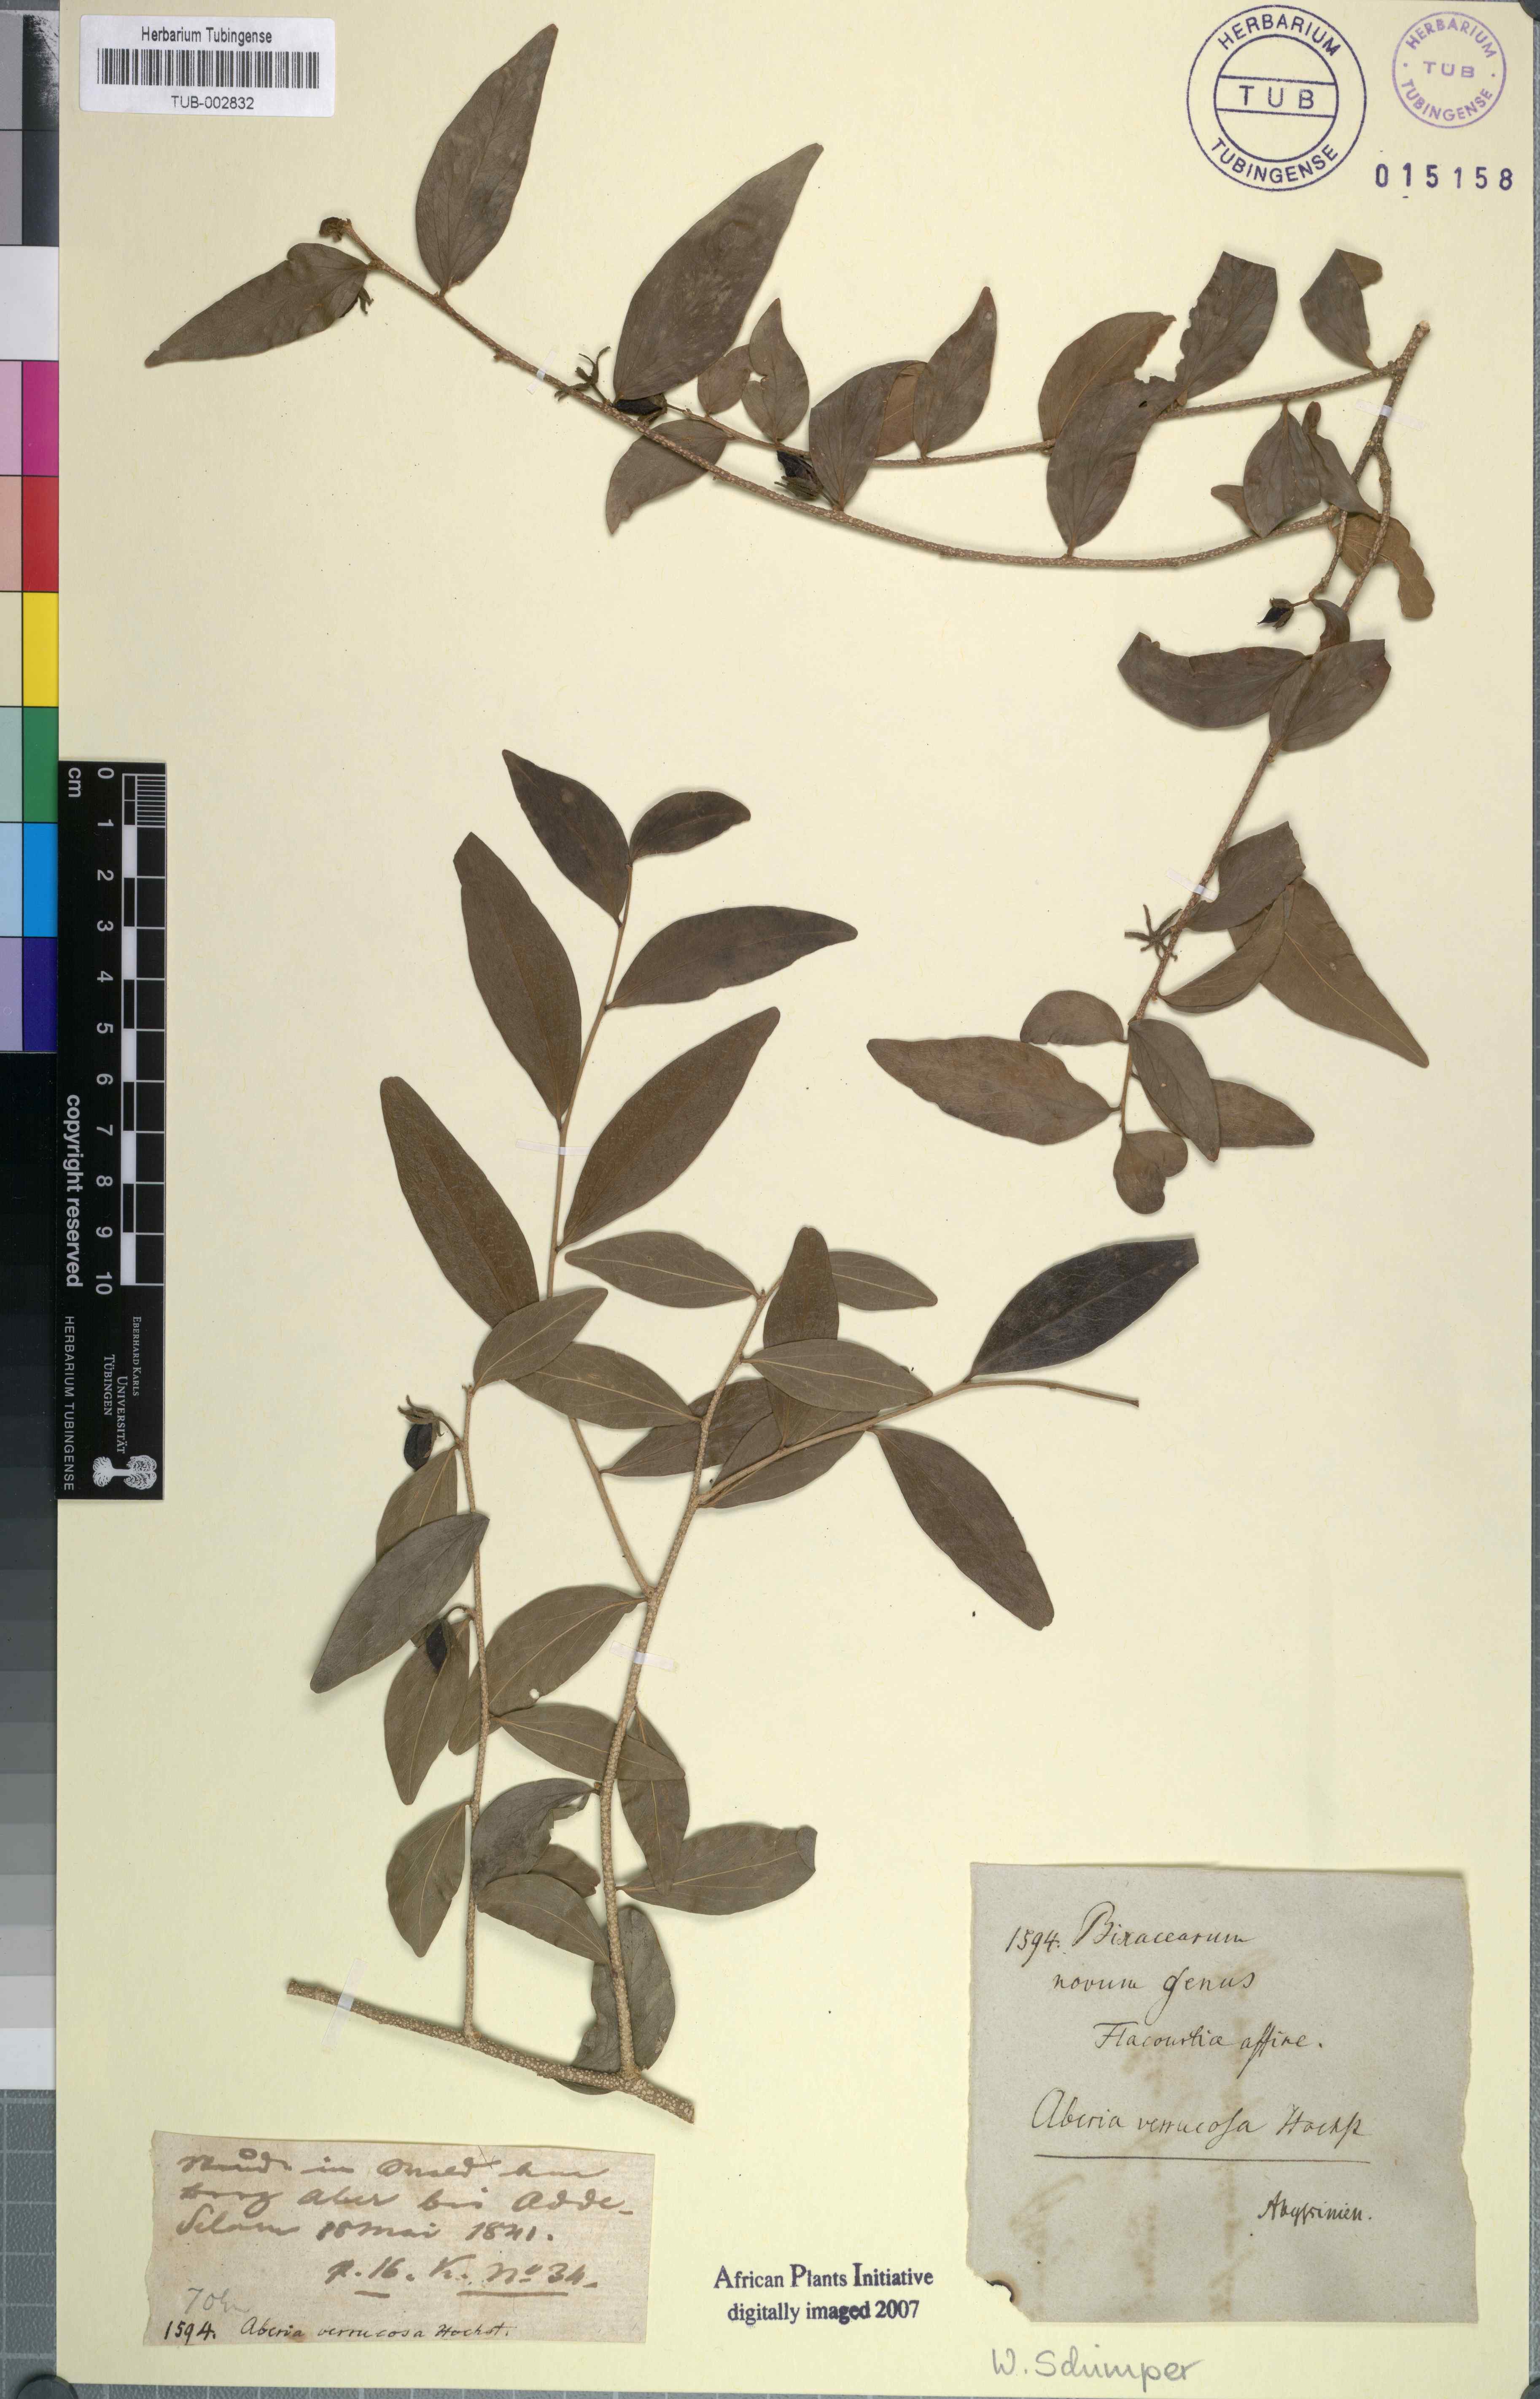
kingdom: Plantae
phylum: Tracheophyta
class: Magnoliopsida
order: Malpighiales
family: Salicaceae
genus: Dovyalis
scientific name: Dovyalis verrucosa
